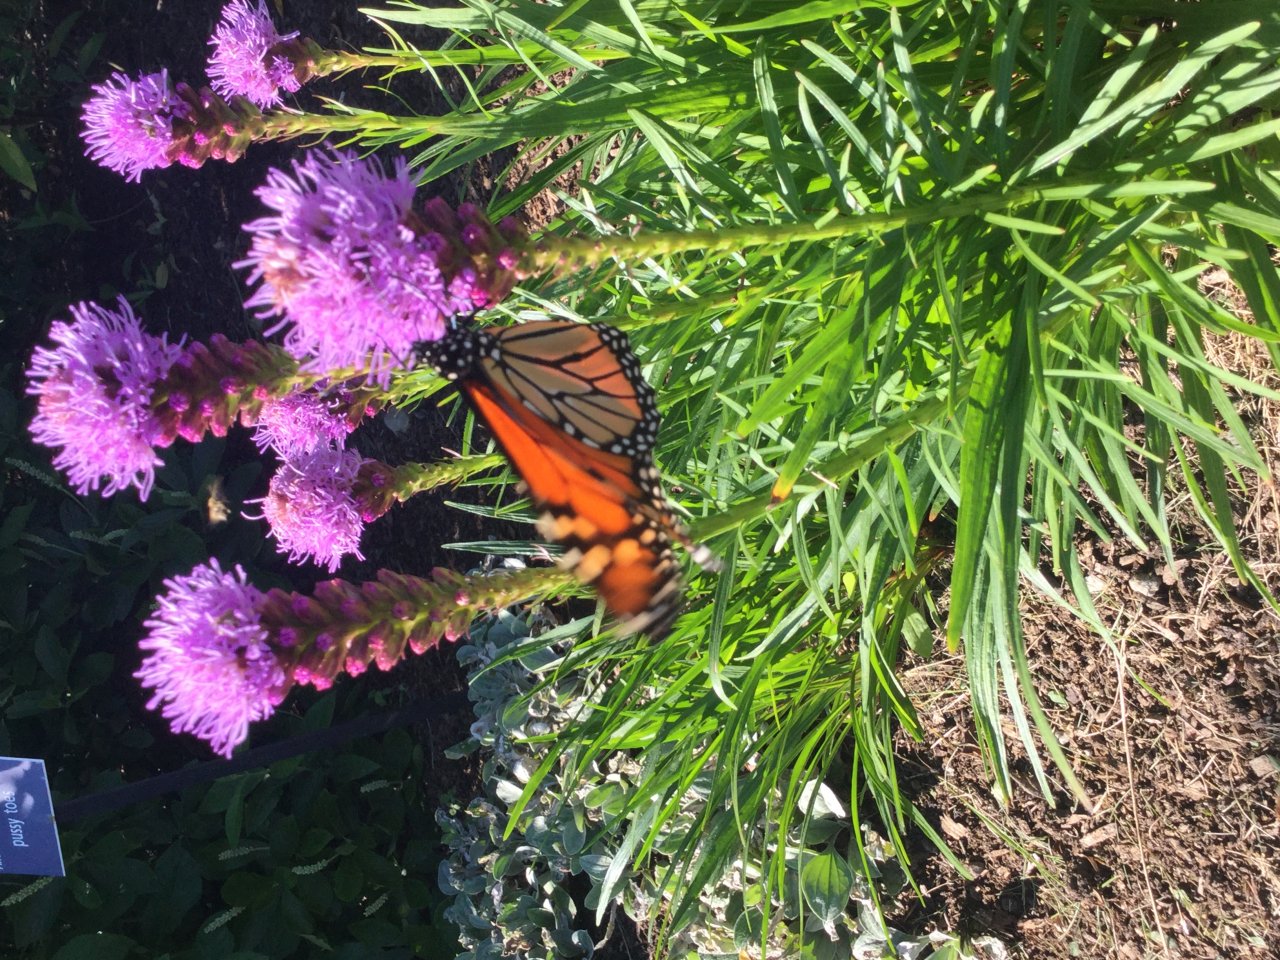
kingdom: Animalia
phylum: Arthropoda
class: Insecta
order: Lepidoptera
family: Nymphalidae
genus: Danaus
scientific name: Danaus plexippus
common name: Monarch
